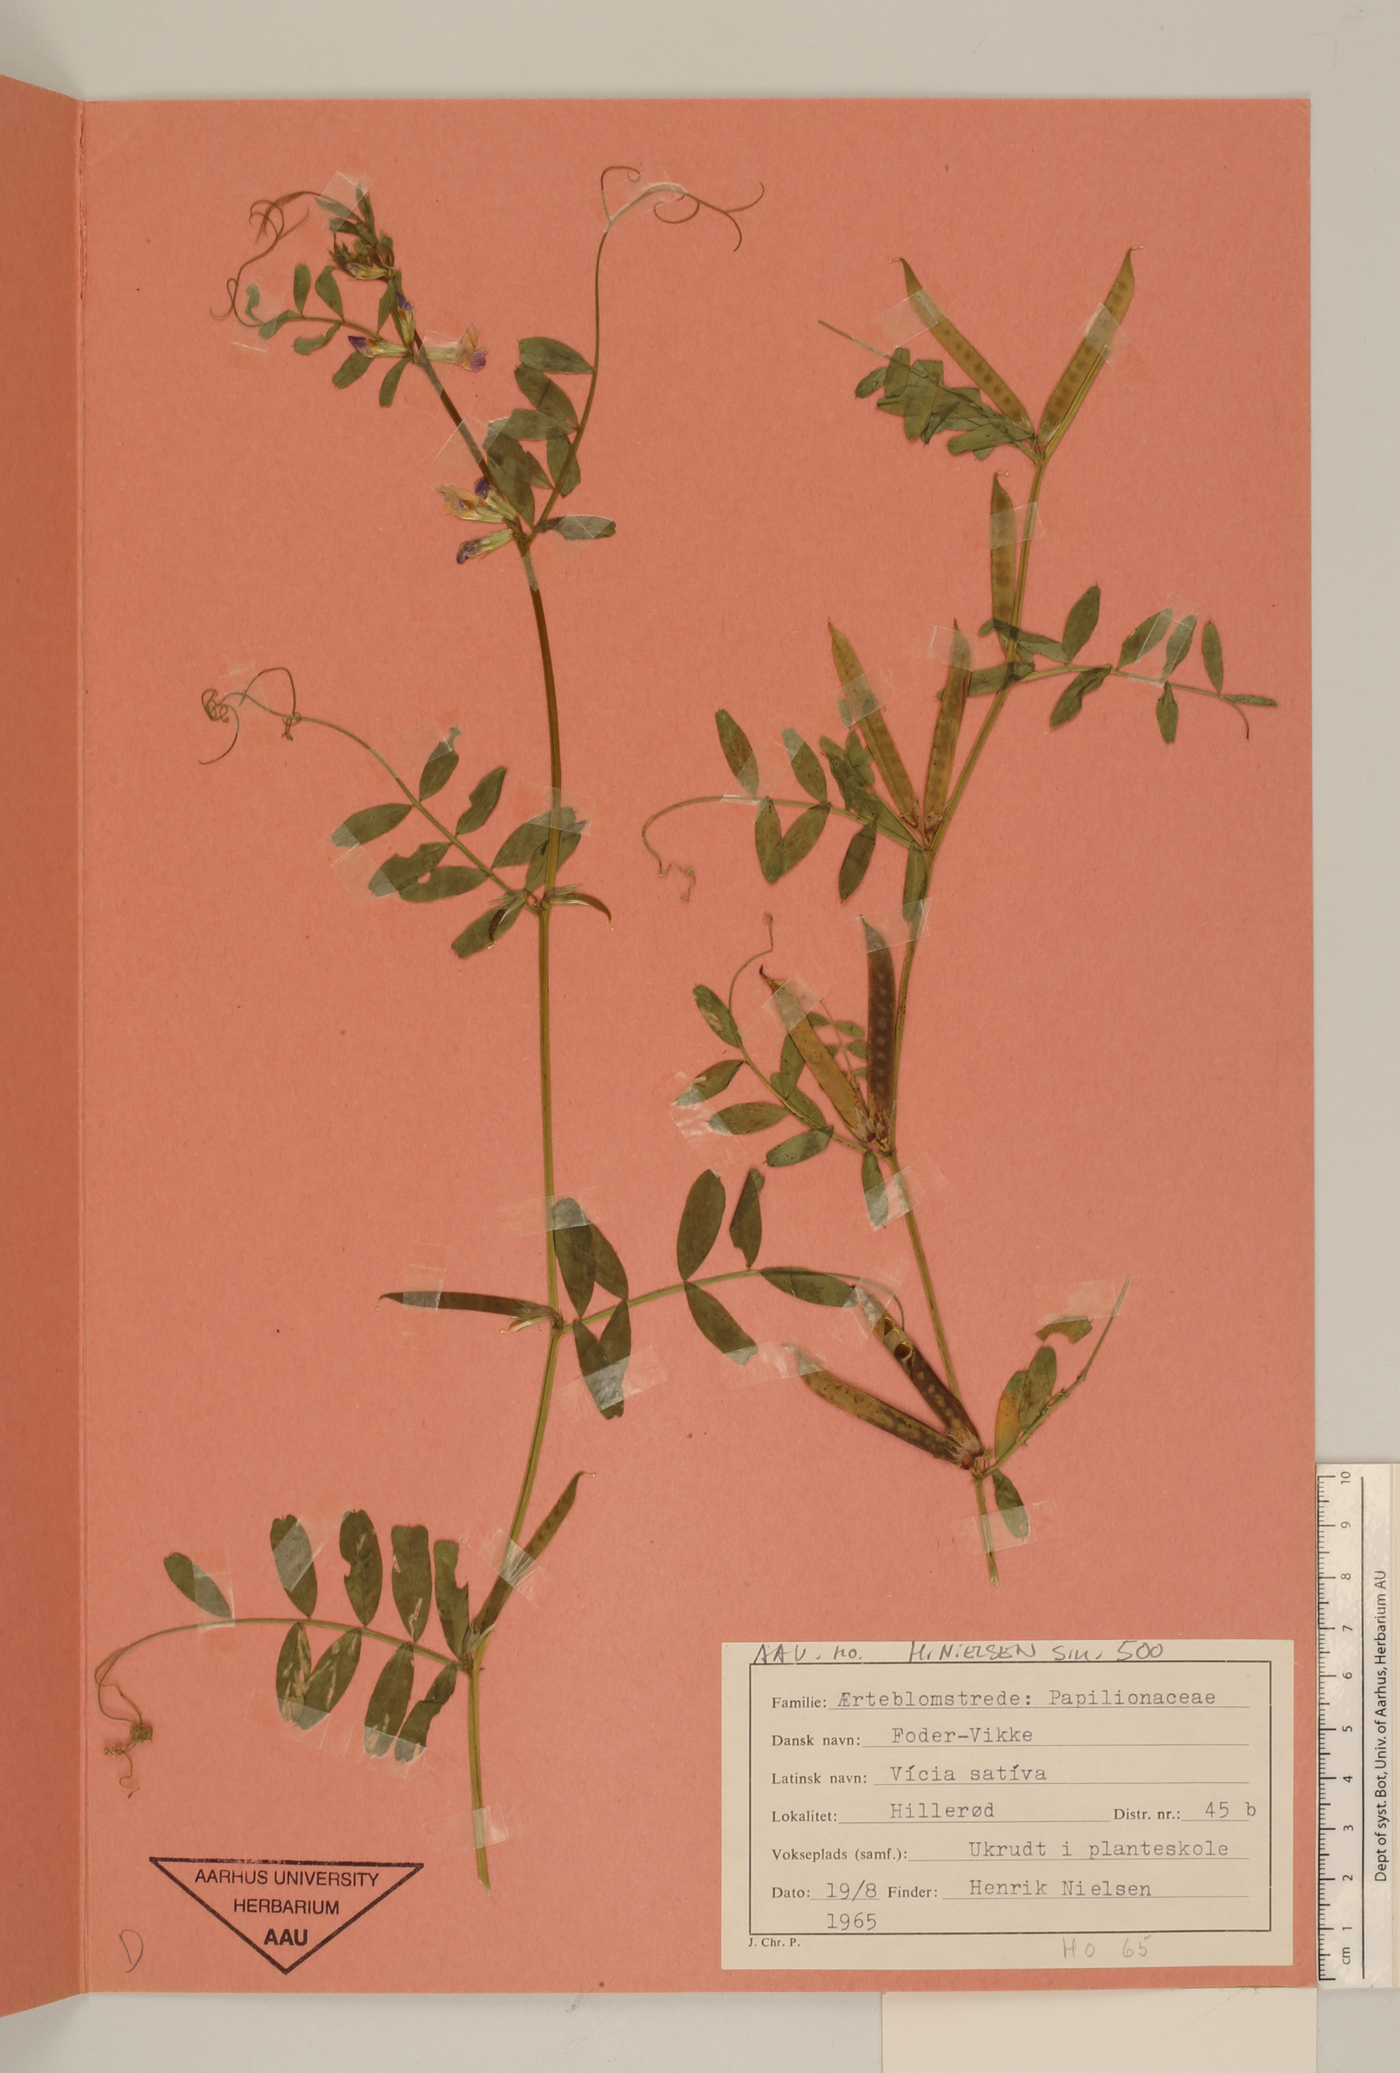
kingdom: Plantae
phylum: Tracheophyta
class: Magnoliopsida
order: Fabales
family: Fabaceae
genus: Vicia
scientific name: Vicia sativa
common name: Garden vetch
